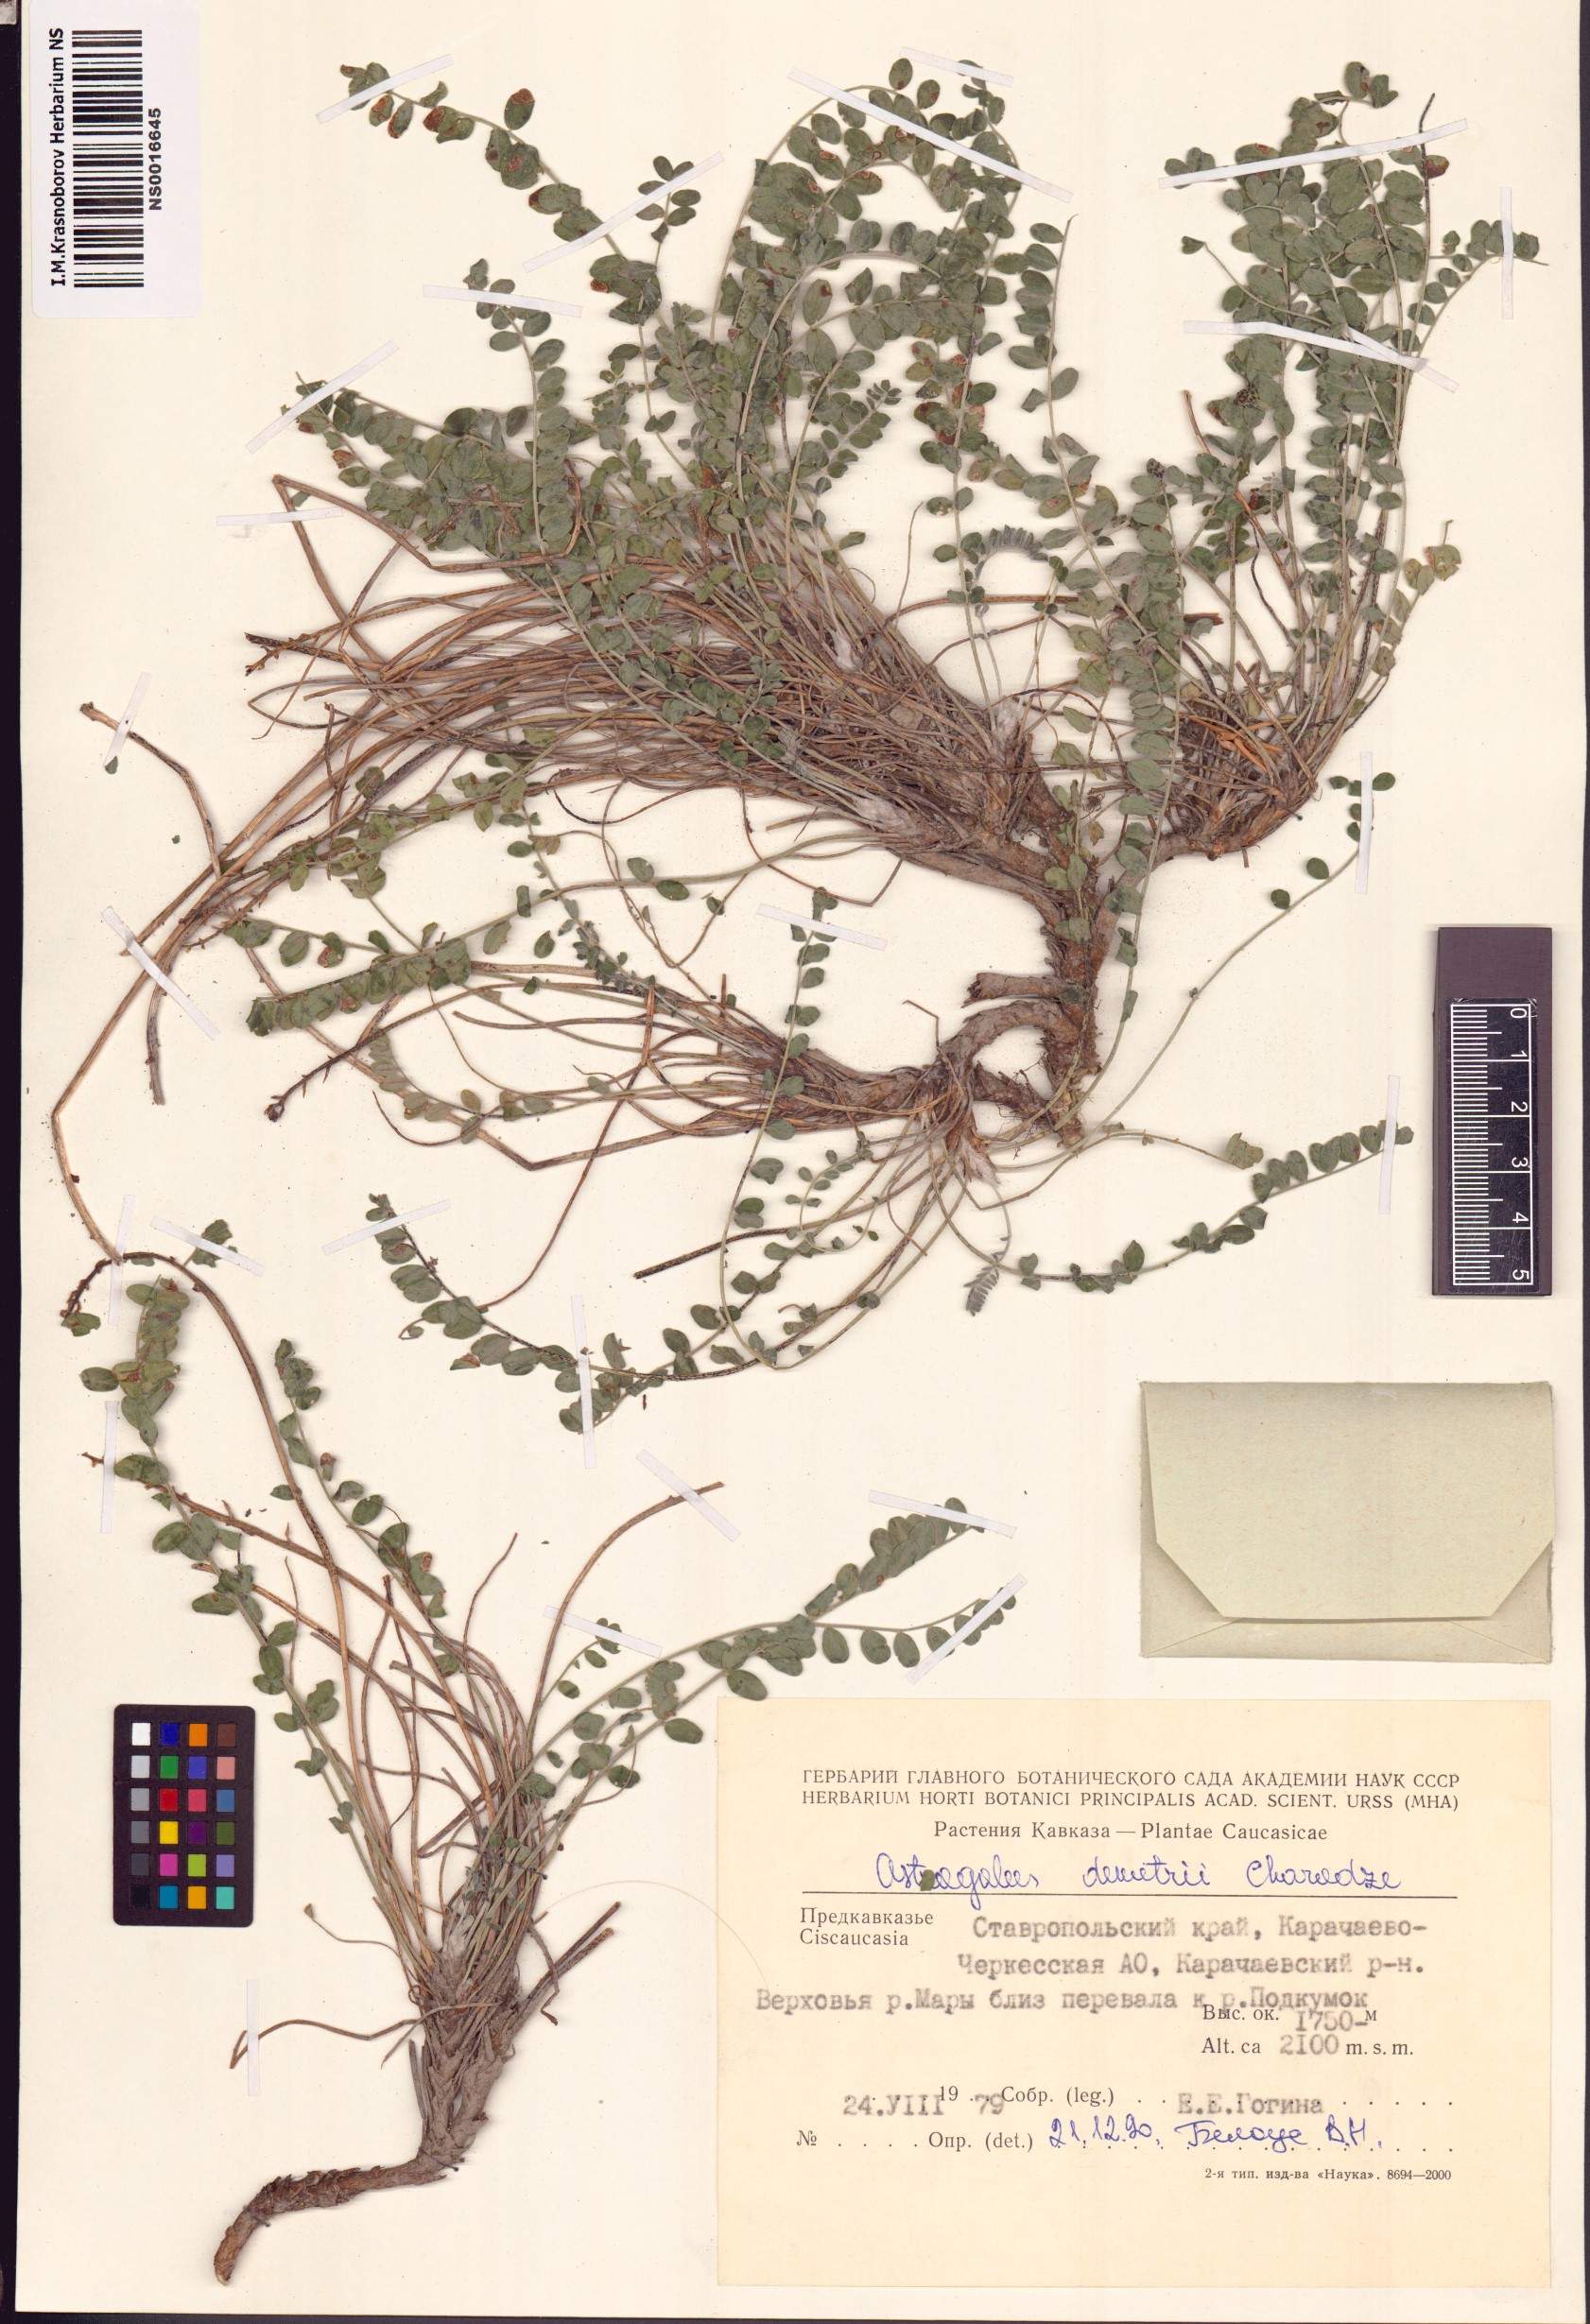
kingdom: Plantae
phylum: Tracheophyta
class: Magnoliopsida
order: Fabales
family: Fabaceae
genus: Astragalus
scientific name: Astragalus demetrii
